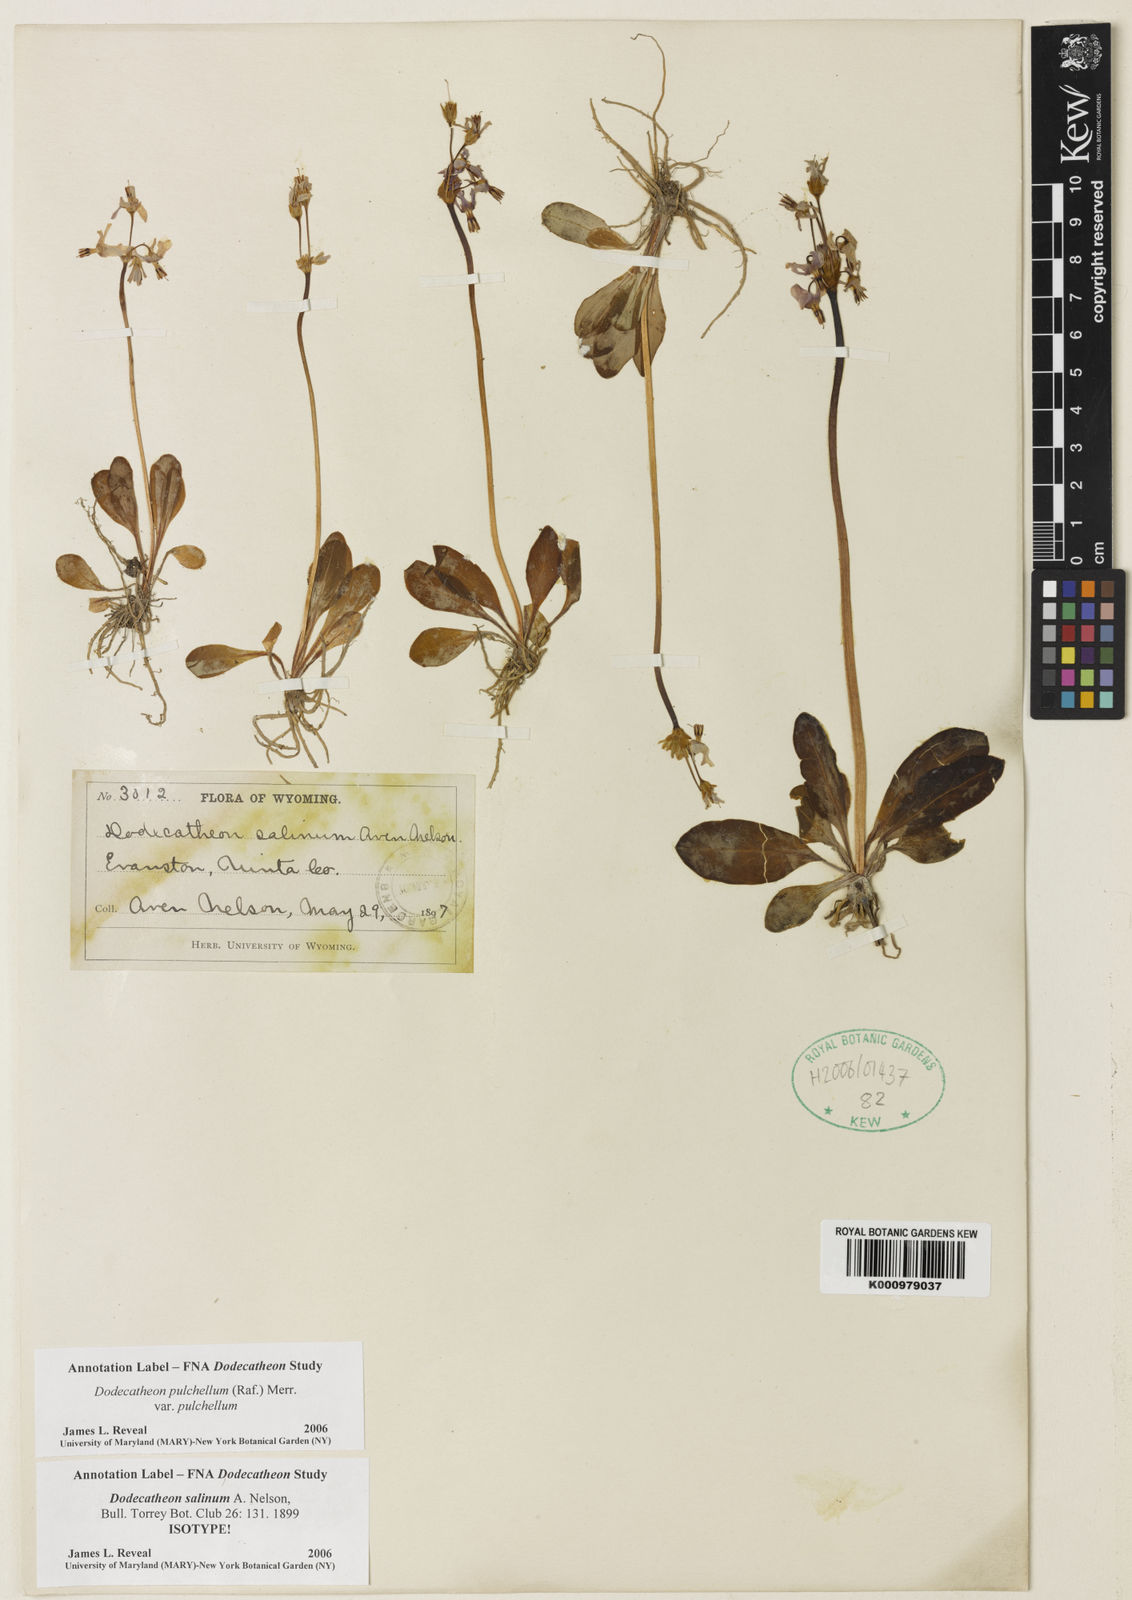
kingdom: Plantae
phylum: Tracheophyta
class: Magnoliopsida
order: Ericales
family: Primulaceae
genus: Dodecatheon
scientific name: Dodecatheon pulchellum
